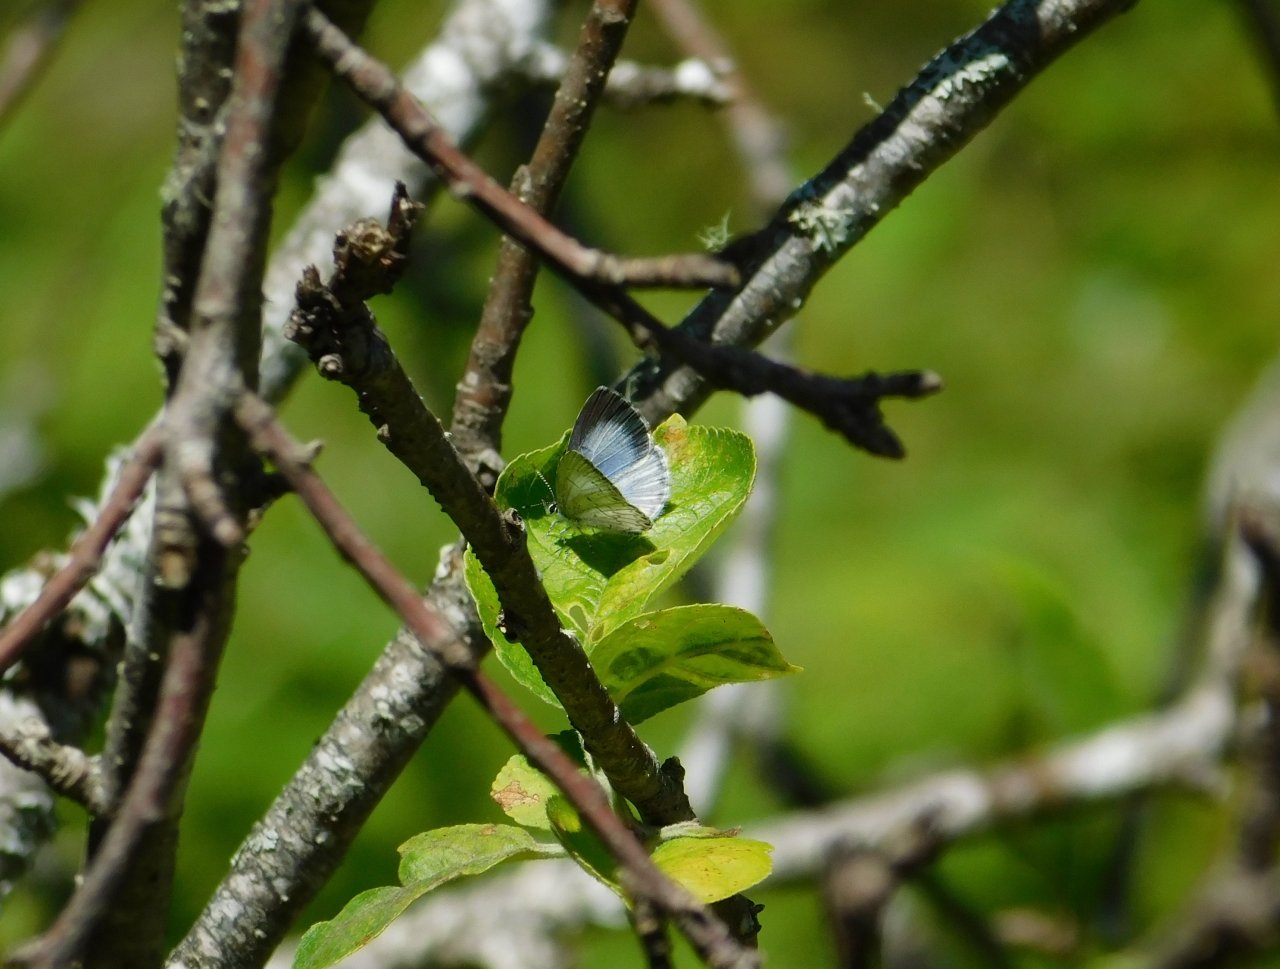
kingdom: Animalia
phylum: Arthropoda
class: Insecta
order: Lepidoptera
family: Lycaenidae
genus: Cyaniris
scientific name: Cyaniris neglecta
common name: Summer Azure
